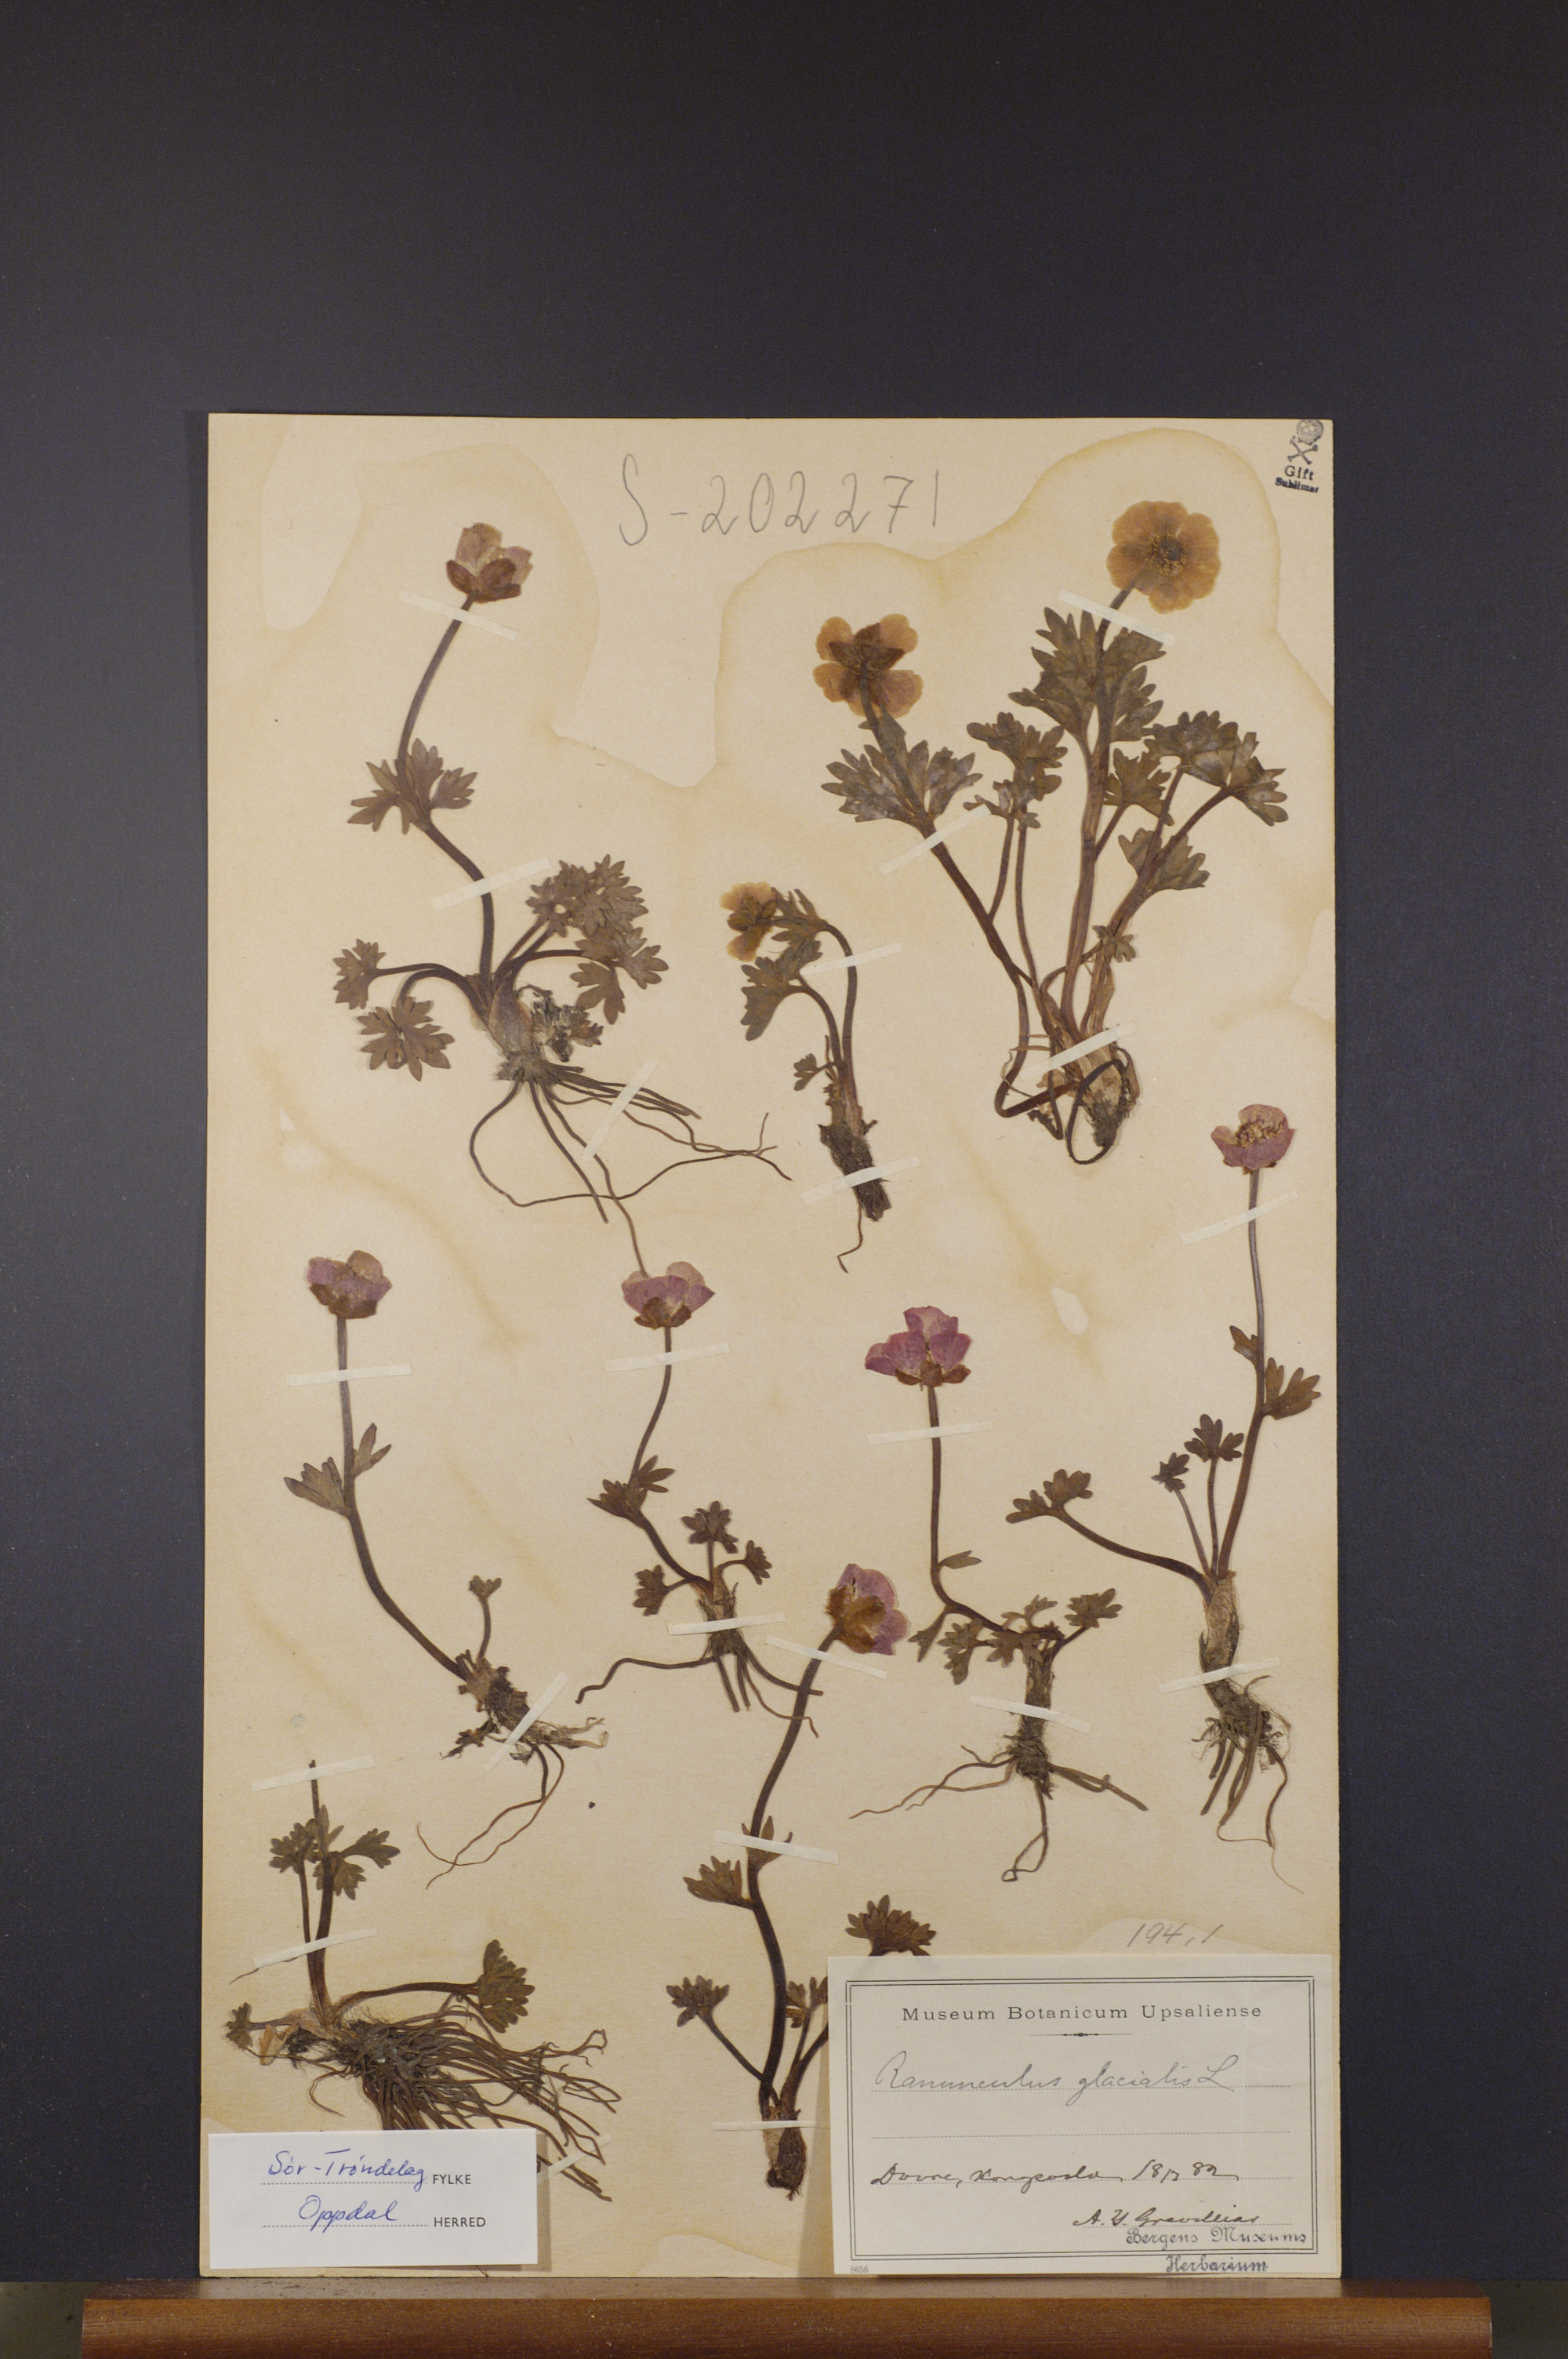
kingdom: Plantae
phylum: Tracheophyta
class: Magnoliopsida
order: Ranunculales
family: Ranunculaceae
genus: Ranunculus
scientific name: Ranunculus glacialis
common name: Glacier buttercup
